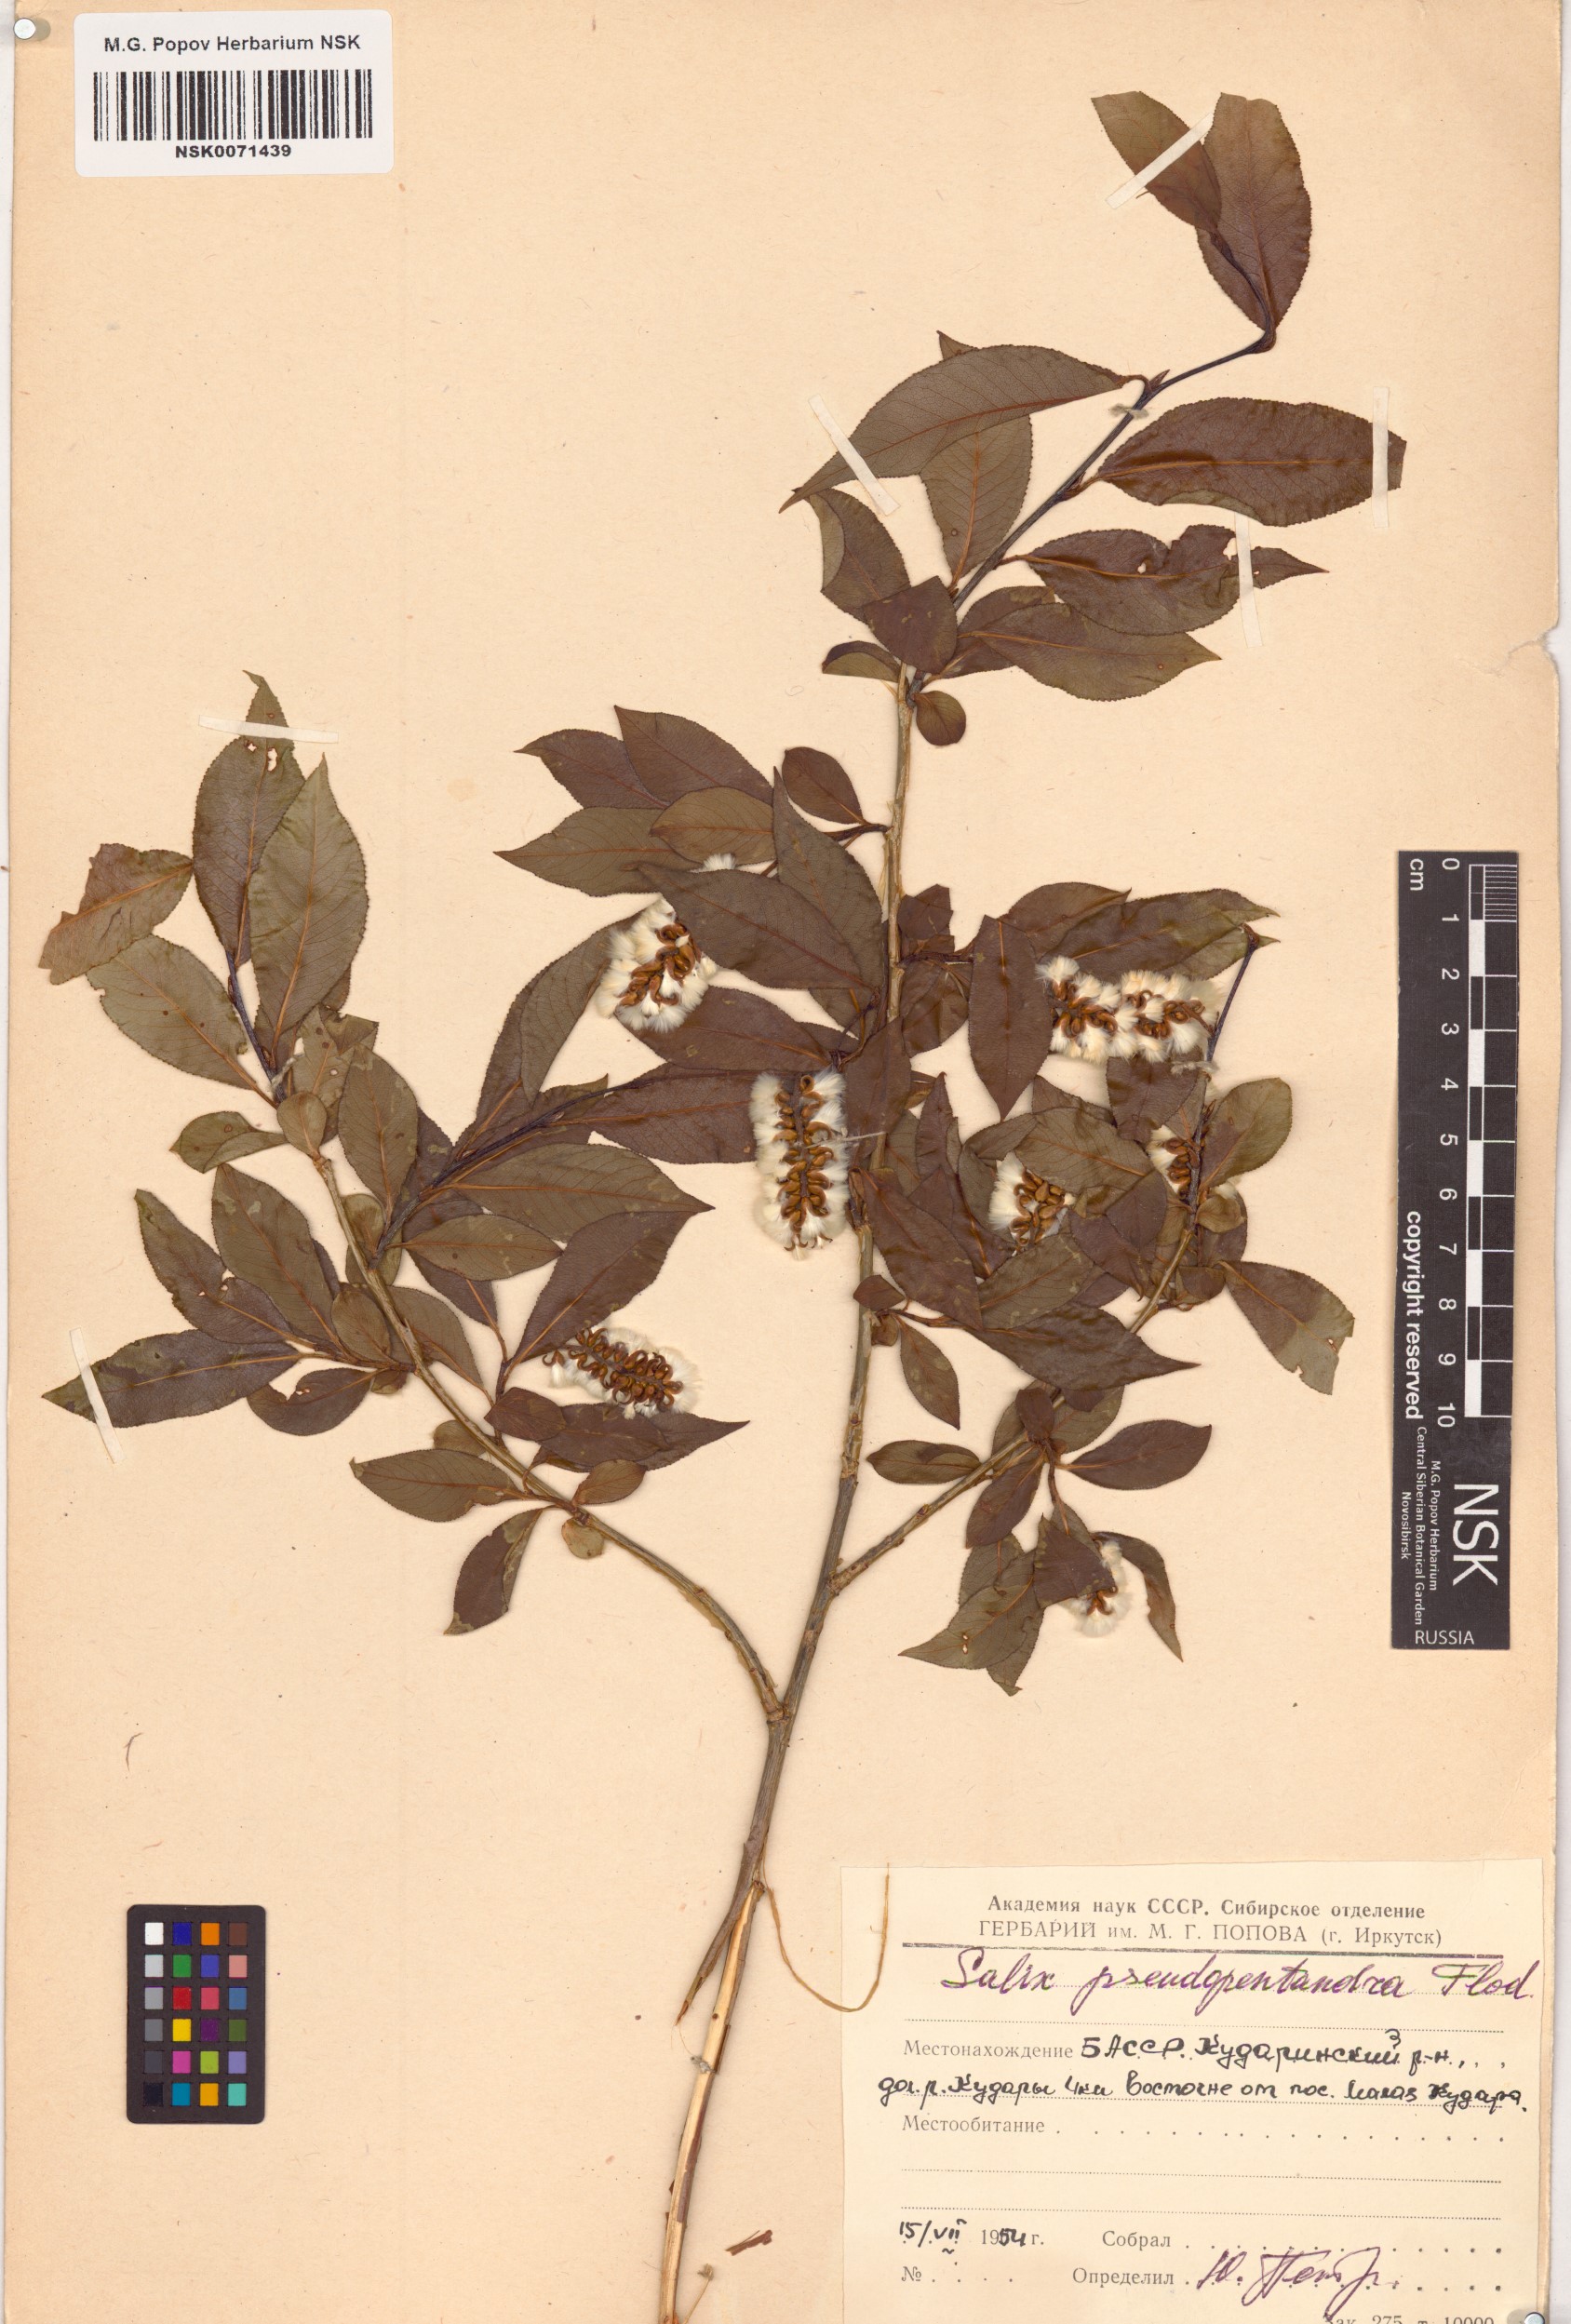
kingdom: Plantae
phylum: Tracheophyta
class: Magnoliopsida
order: Malpighiales
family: Salicaceae
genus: Salix
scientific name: Salix pseudopentandra
